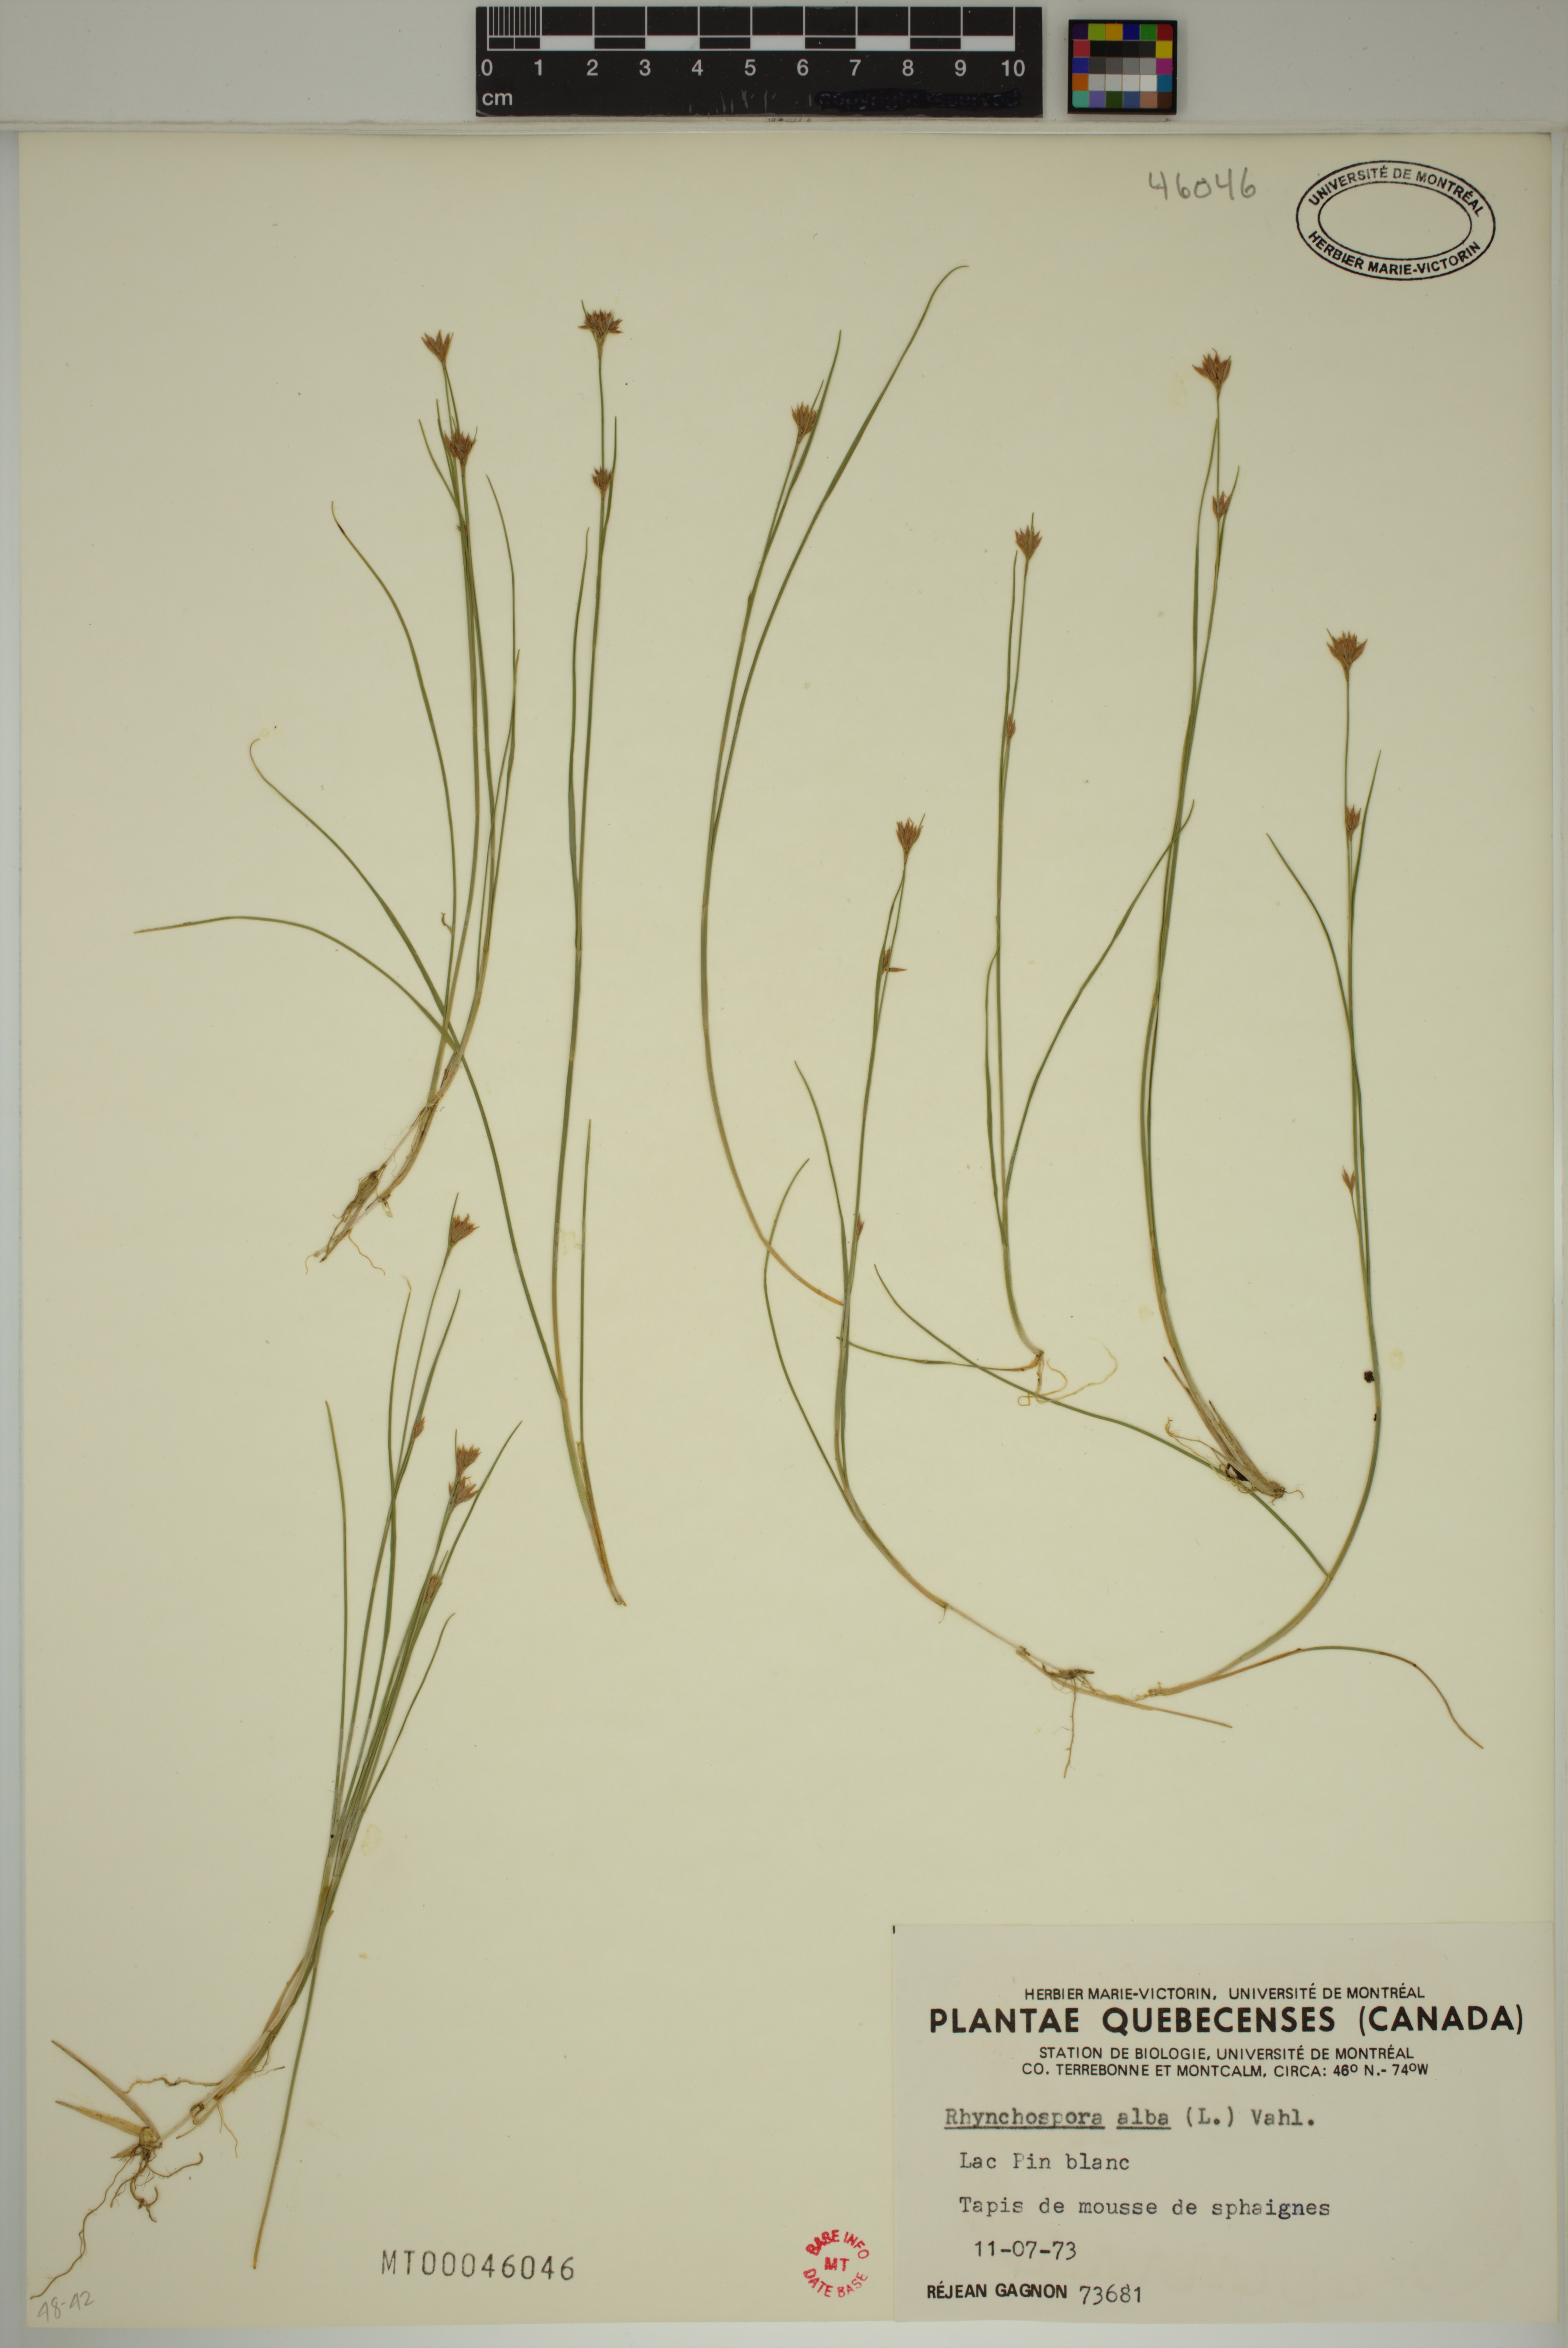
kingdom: Plantae
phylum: Tracheophyta
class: Liliopsida
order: Poales
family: Cyperaceae
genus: Rhynchospora
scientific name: Rhynchospora alba
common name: White beak-sedge
